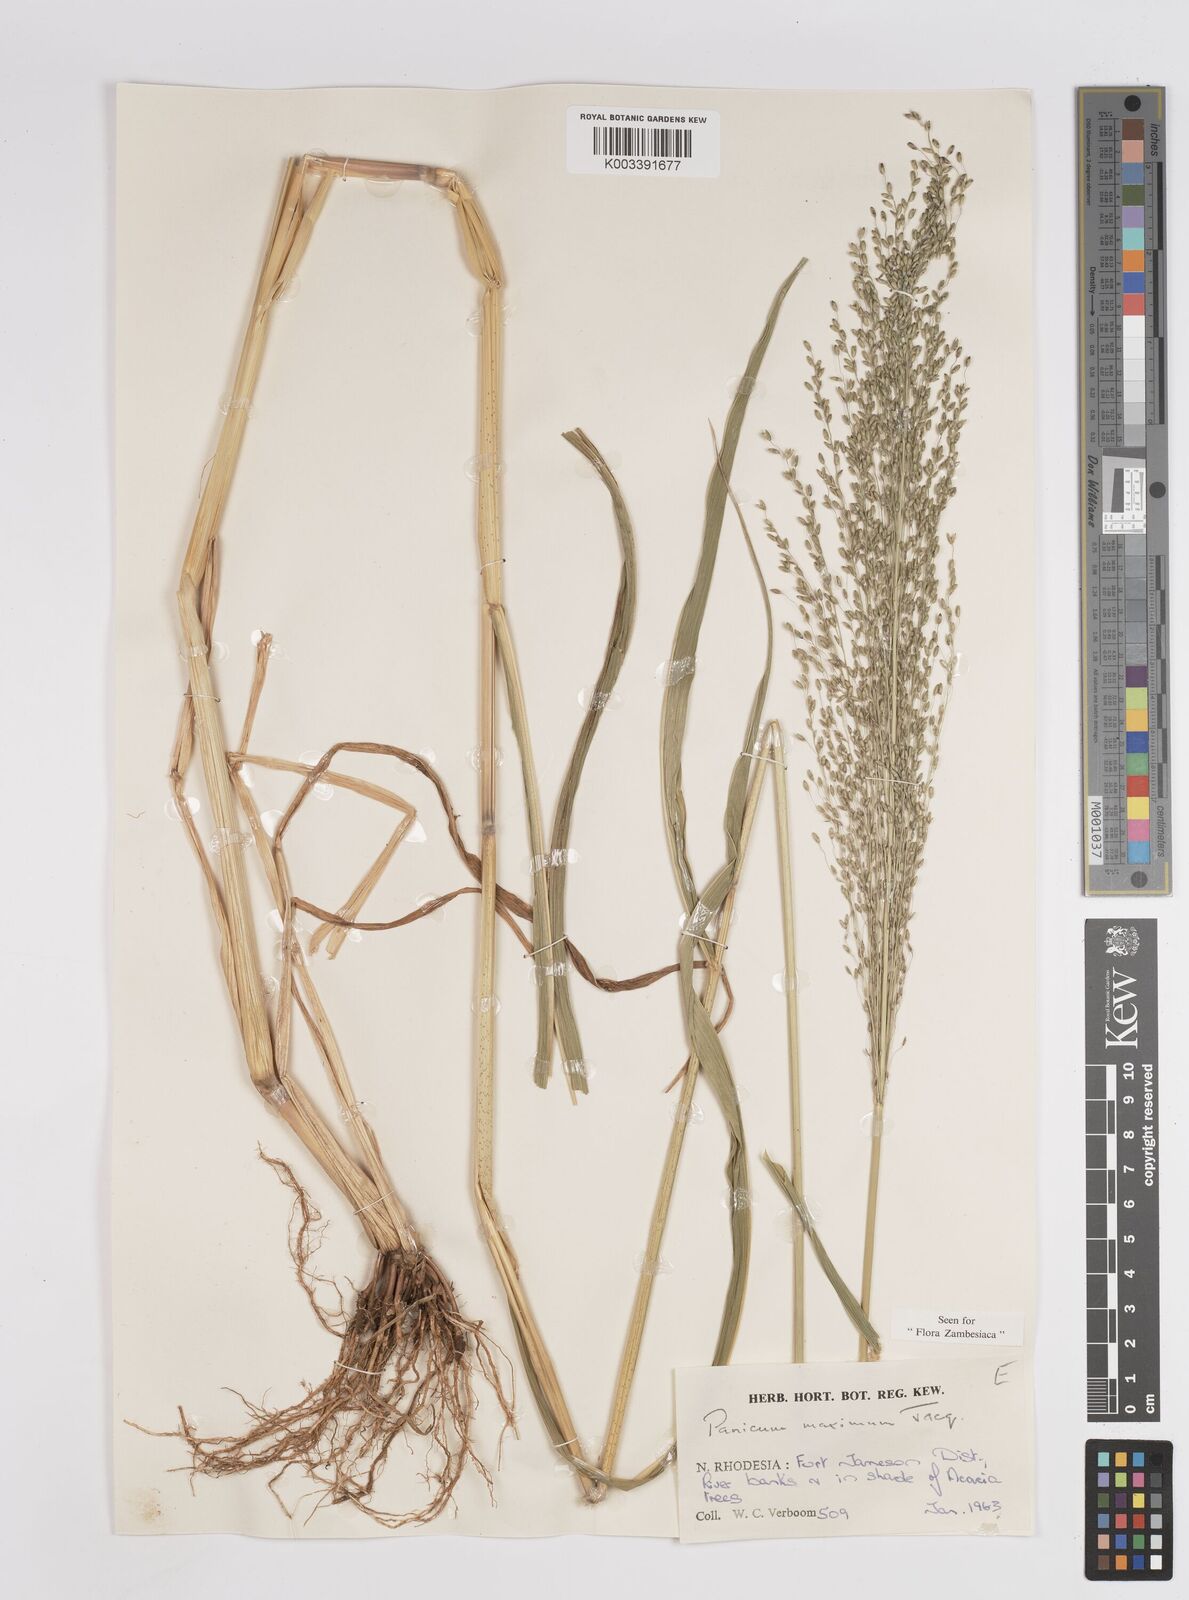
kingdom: Plantae
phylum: Tracheophyta
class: Liliopsida
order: Poales
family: Poaceae
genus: Megathyrsus
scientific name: Megathyrsus maximus
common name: Guineagrass
